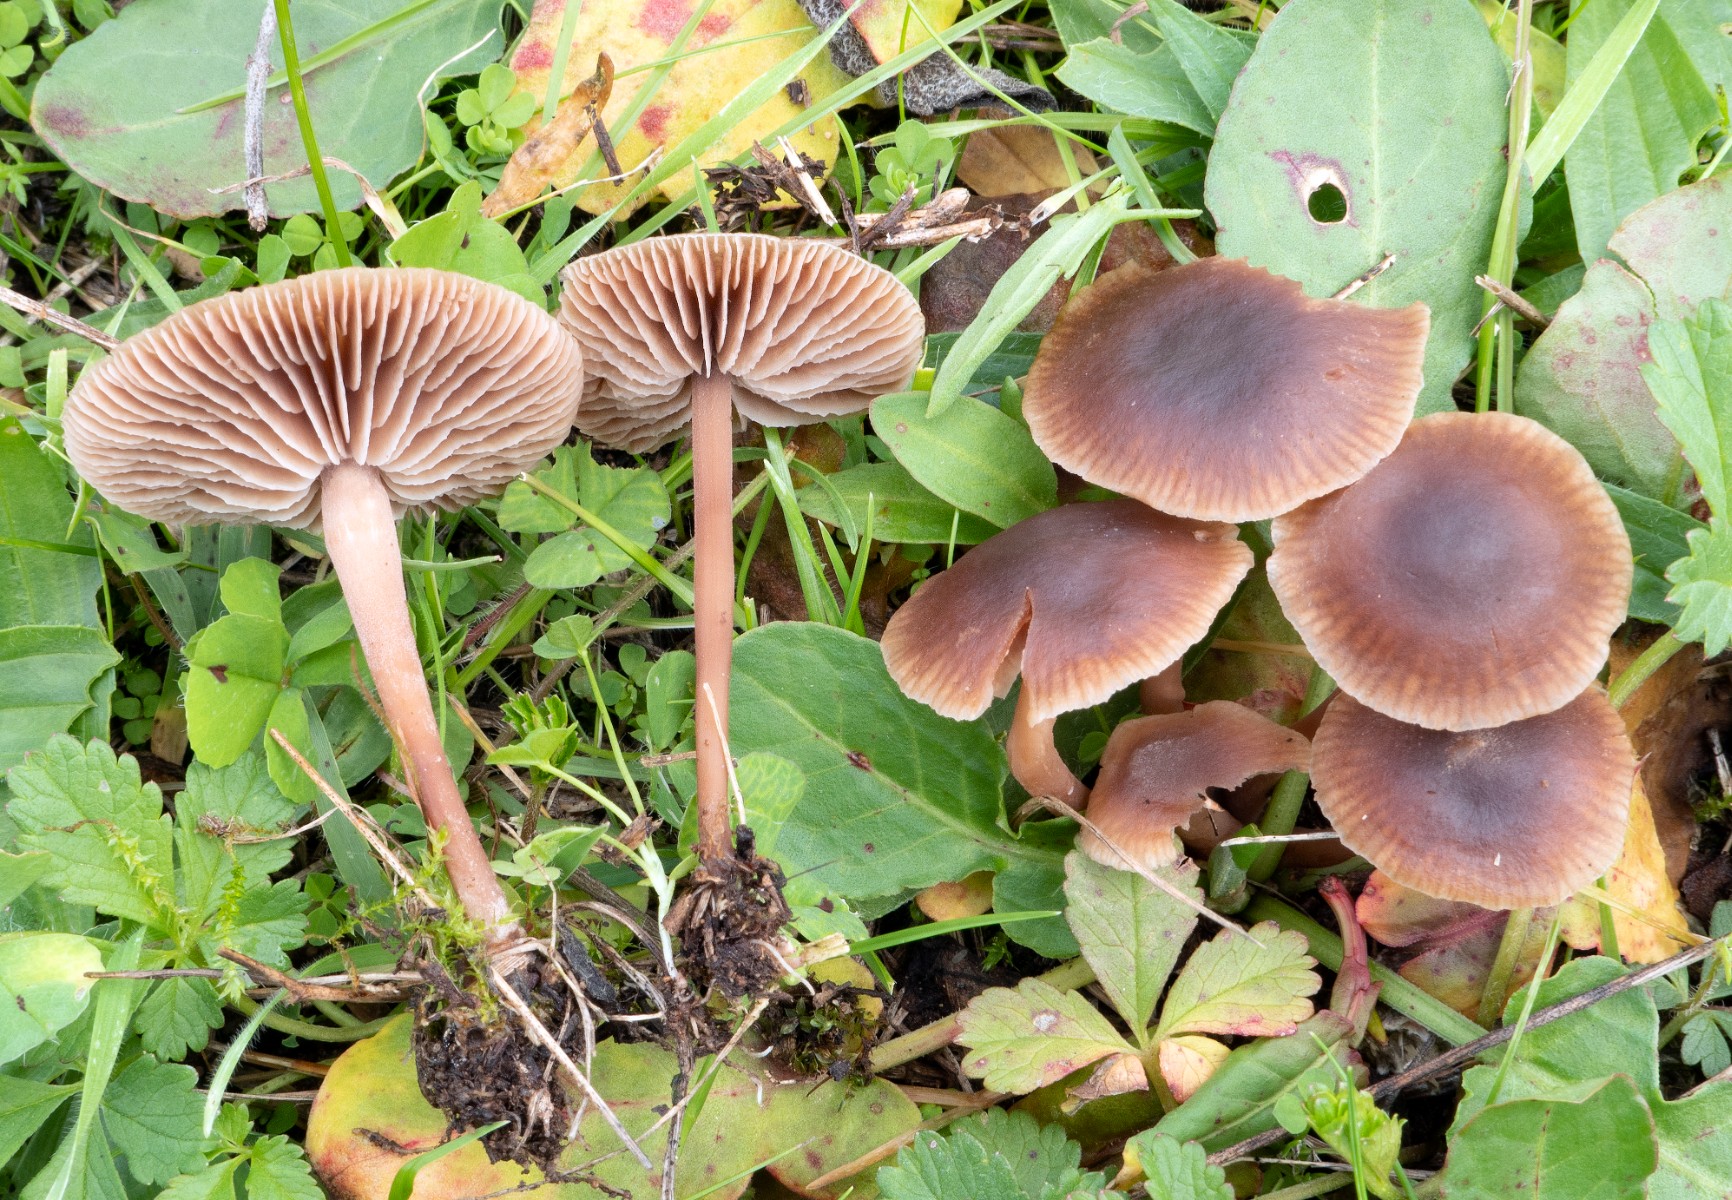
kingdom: Fungi
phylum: Basidiomycota
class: Agaricomycetes
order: Agaricales
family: Omphalotaceae
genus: Gymnopus
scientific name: Gymnopus impudicus
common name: fesen fladhat
